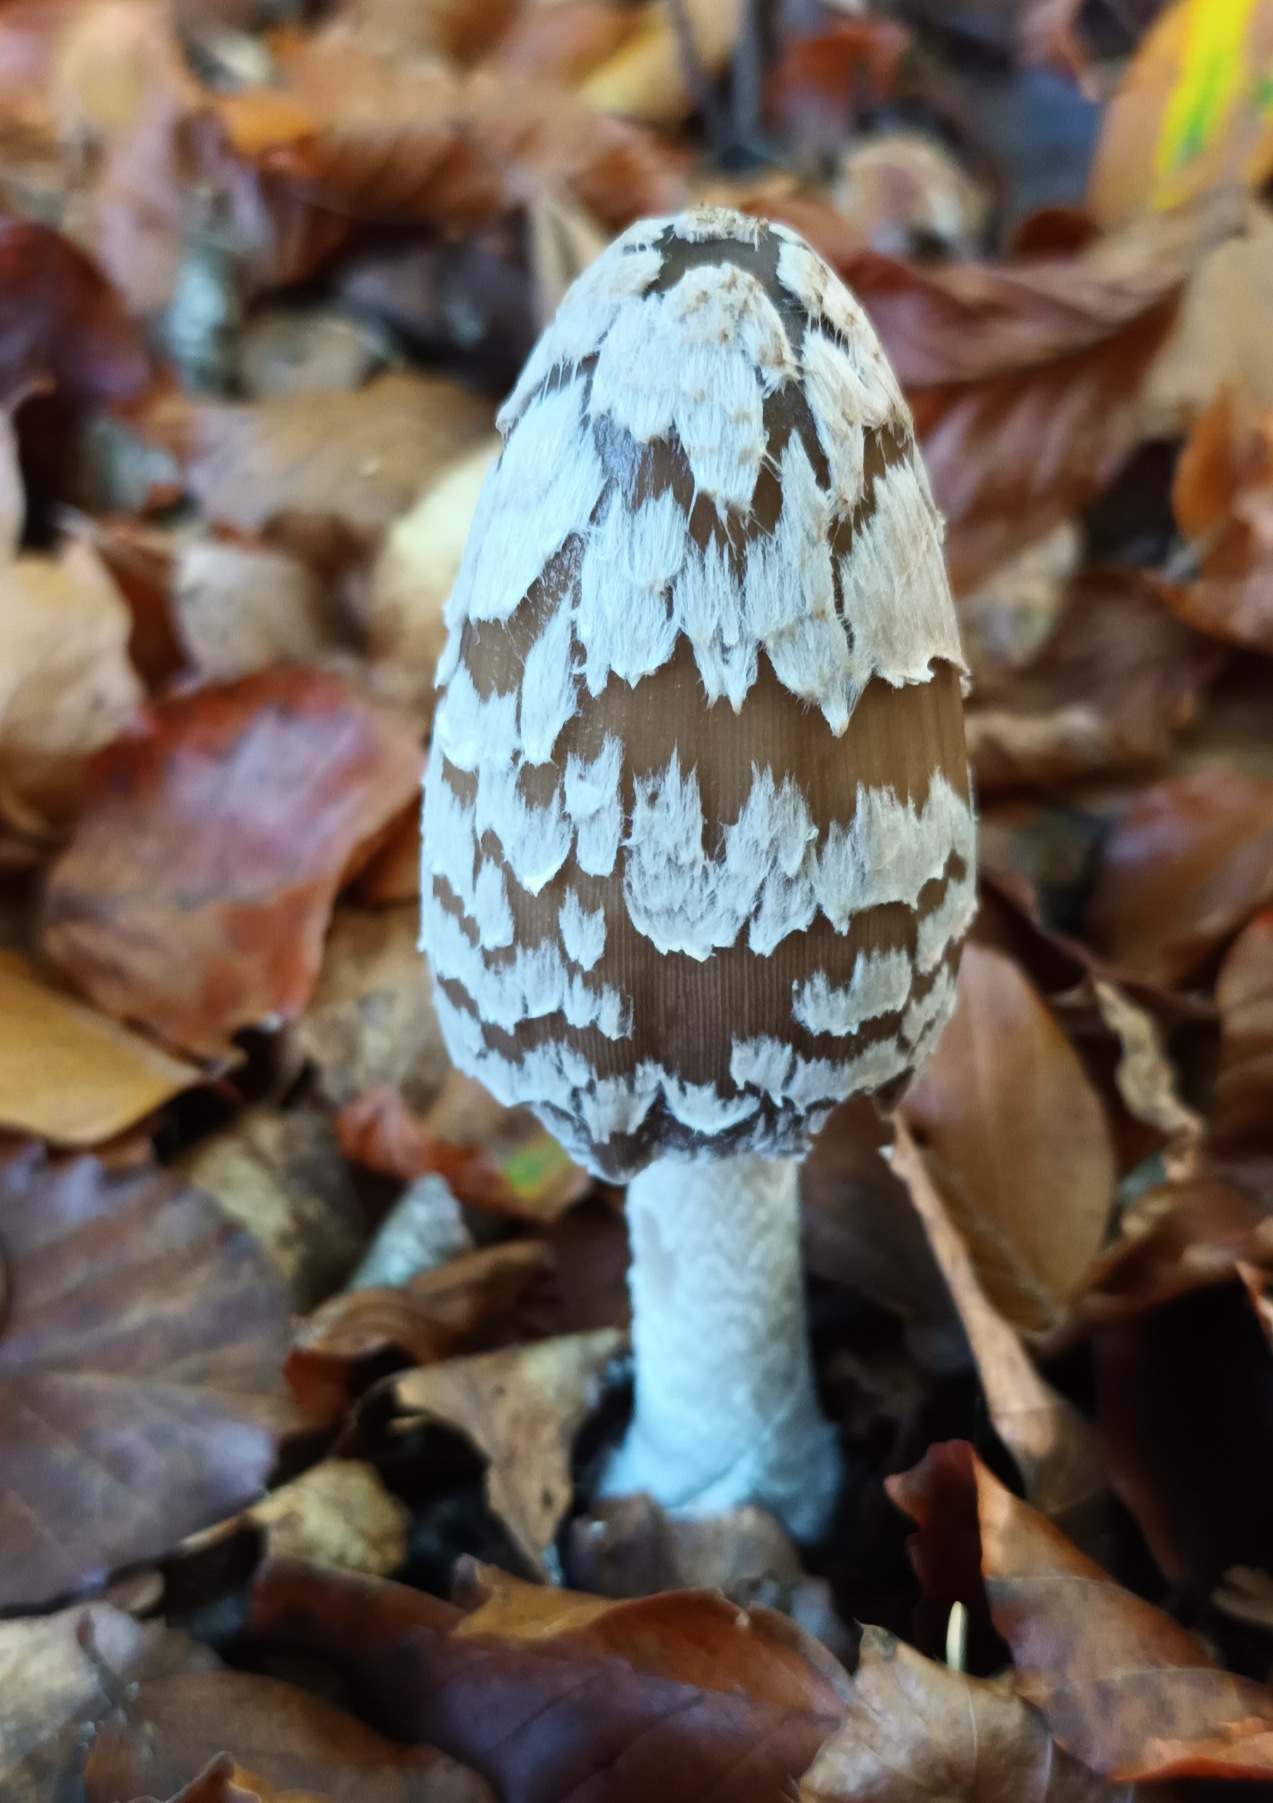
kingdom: Fungi
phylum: Basidiomycota
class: Agaricomycetes
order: Agaricales
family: Psathyrellaceae
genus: Coprinopsis
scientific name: Coprinopsis picacea
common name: Skade-blækhat
